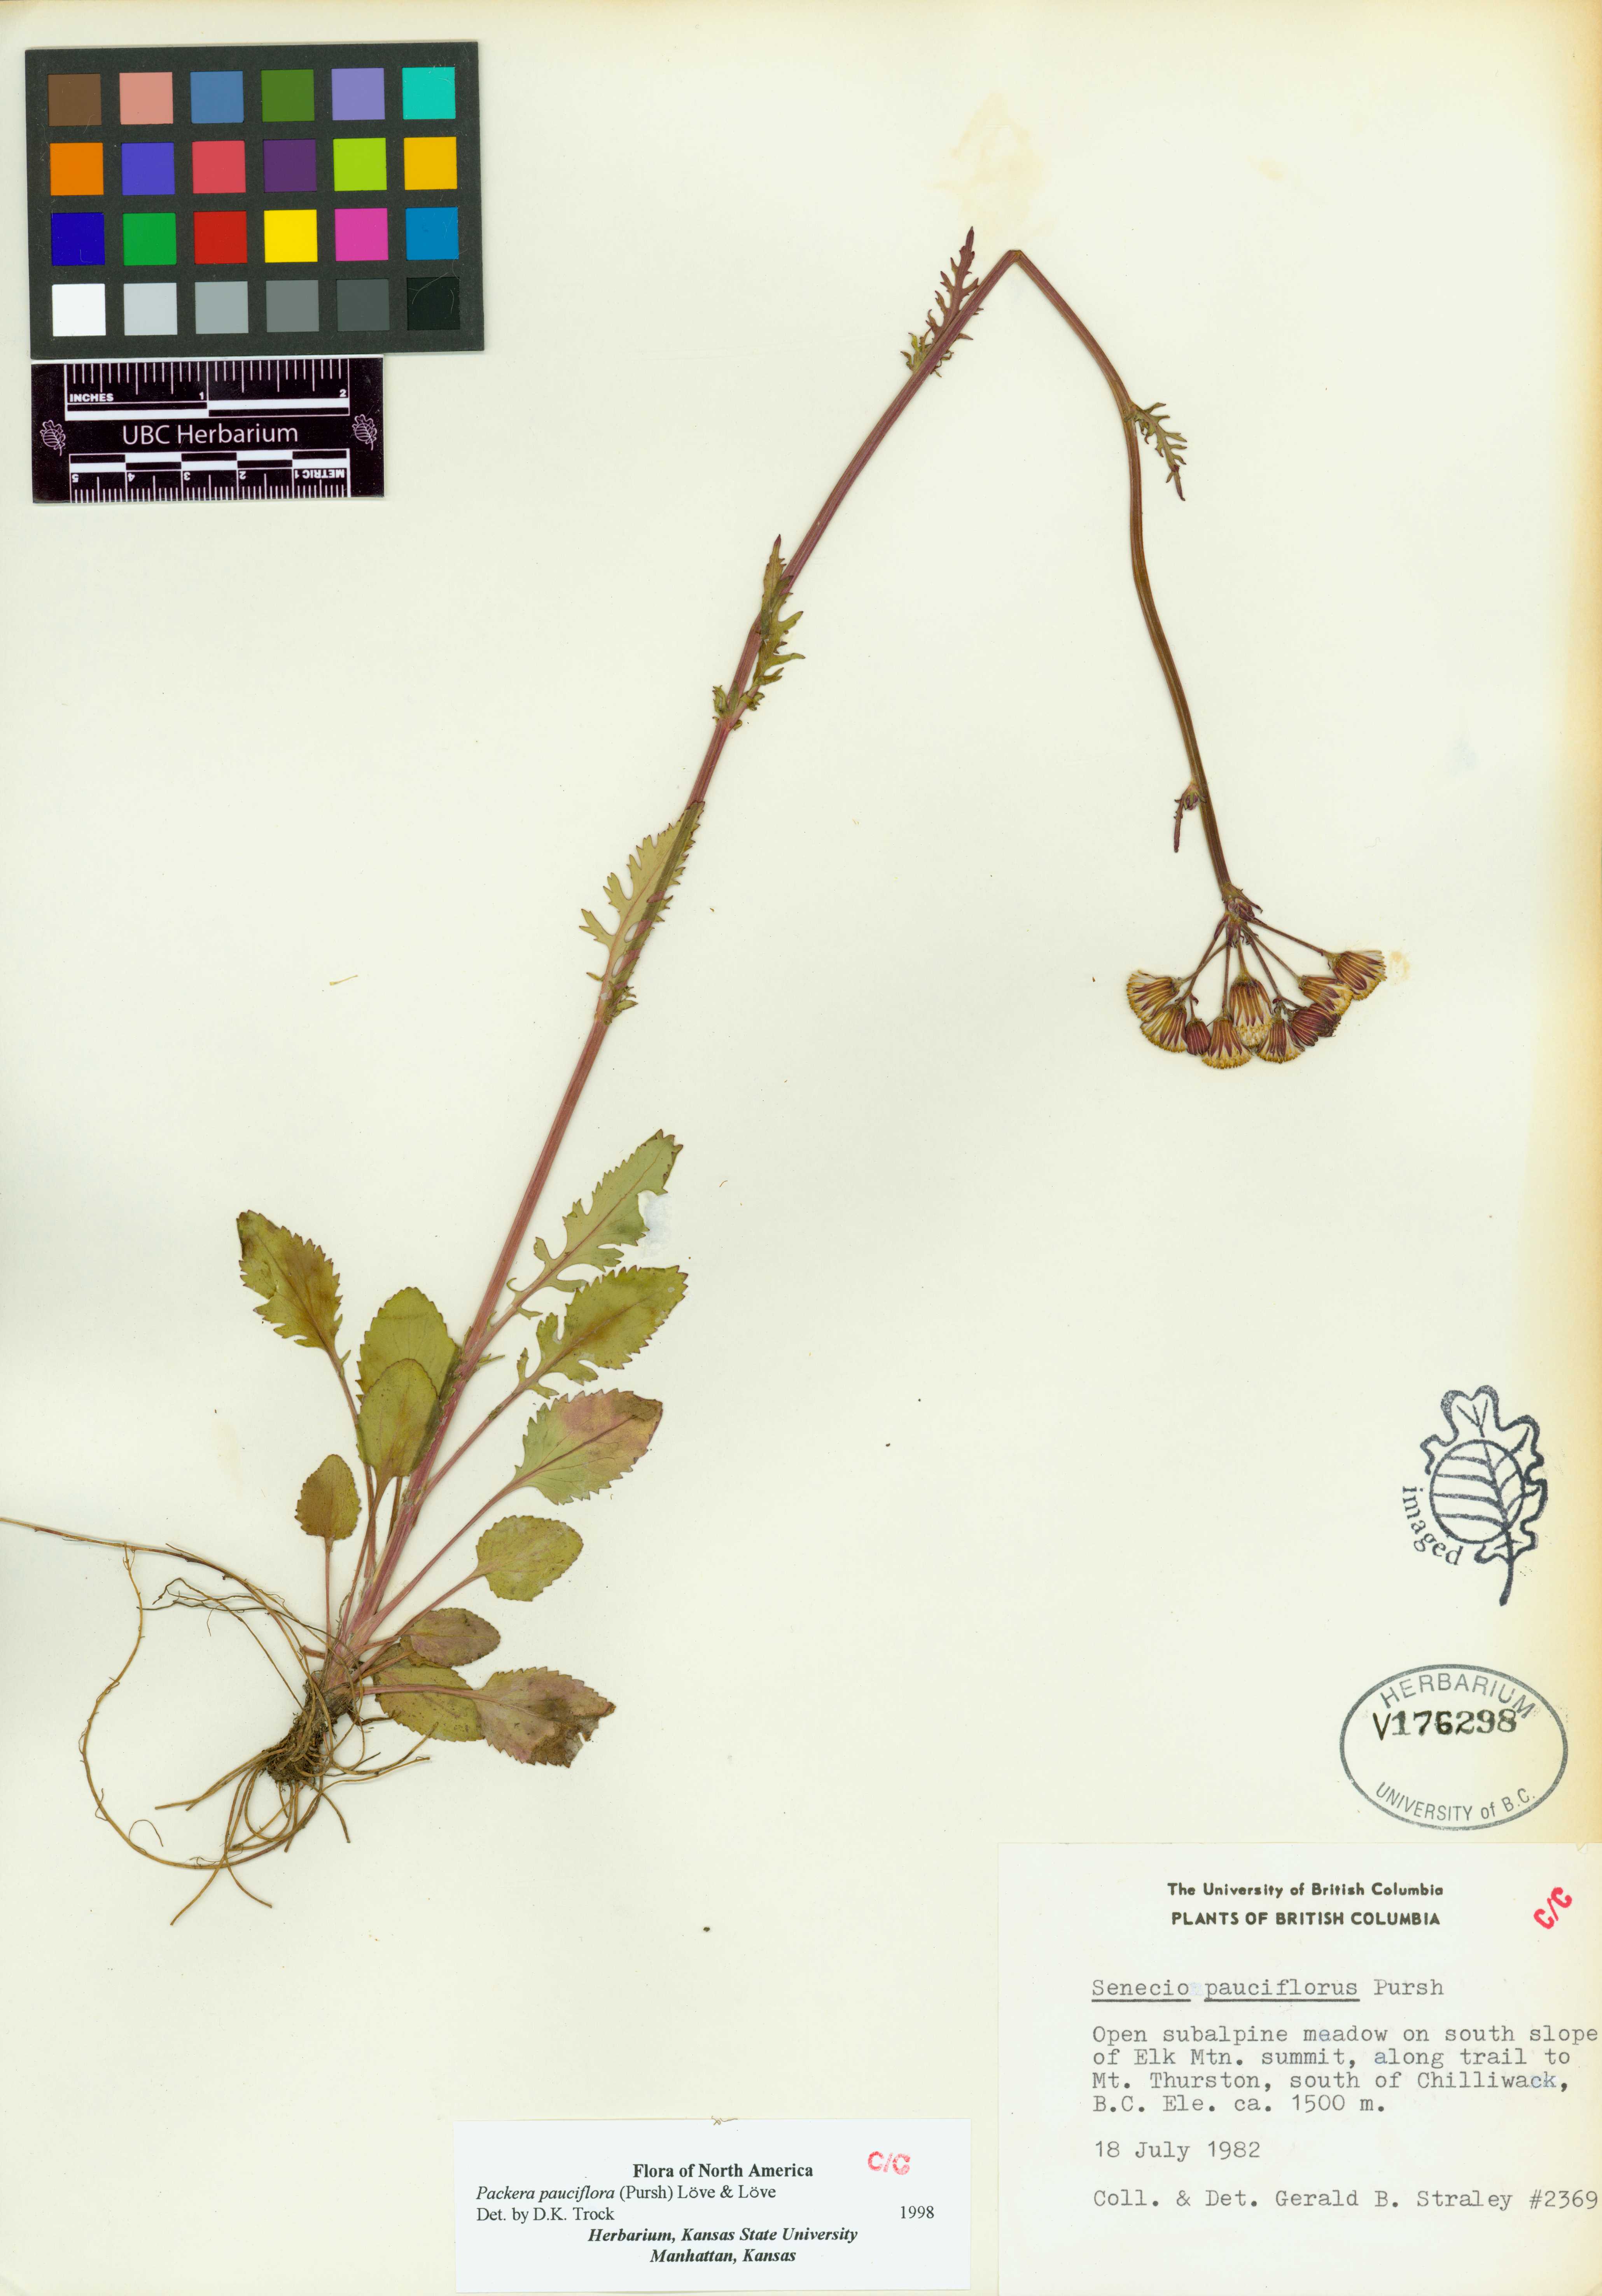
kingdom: Plantae
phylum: Tracheophyta
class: Magnoliopsida
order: Asterales
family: Asteraceae
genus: Packera
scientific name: Packera pauciflora
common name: Alpine groundsel
